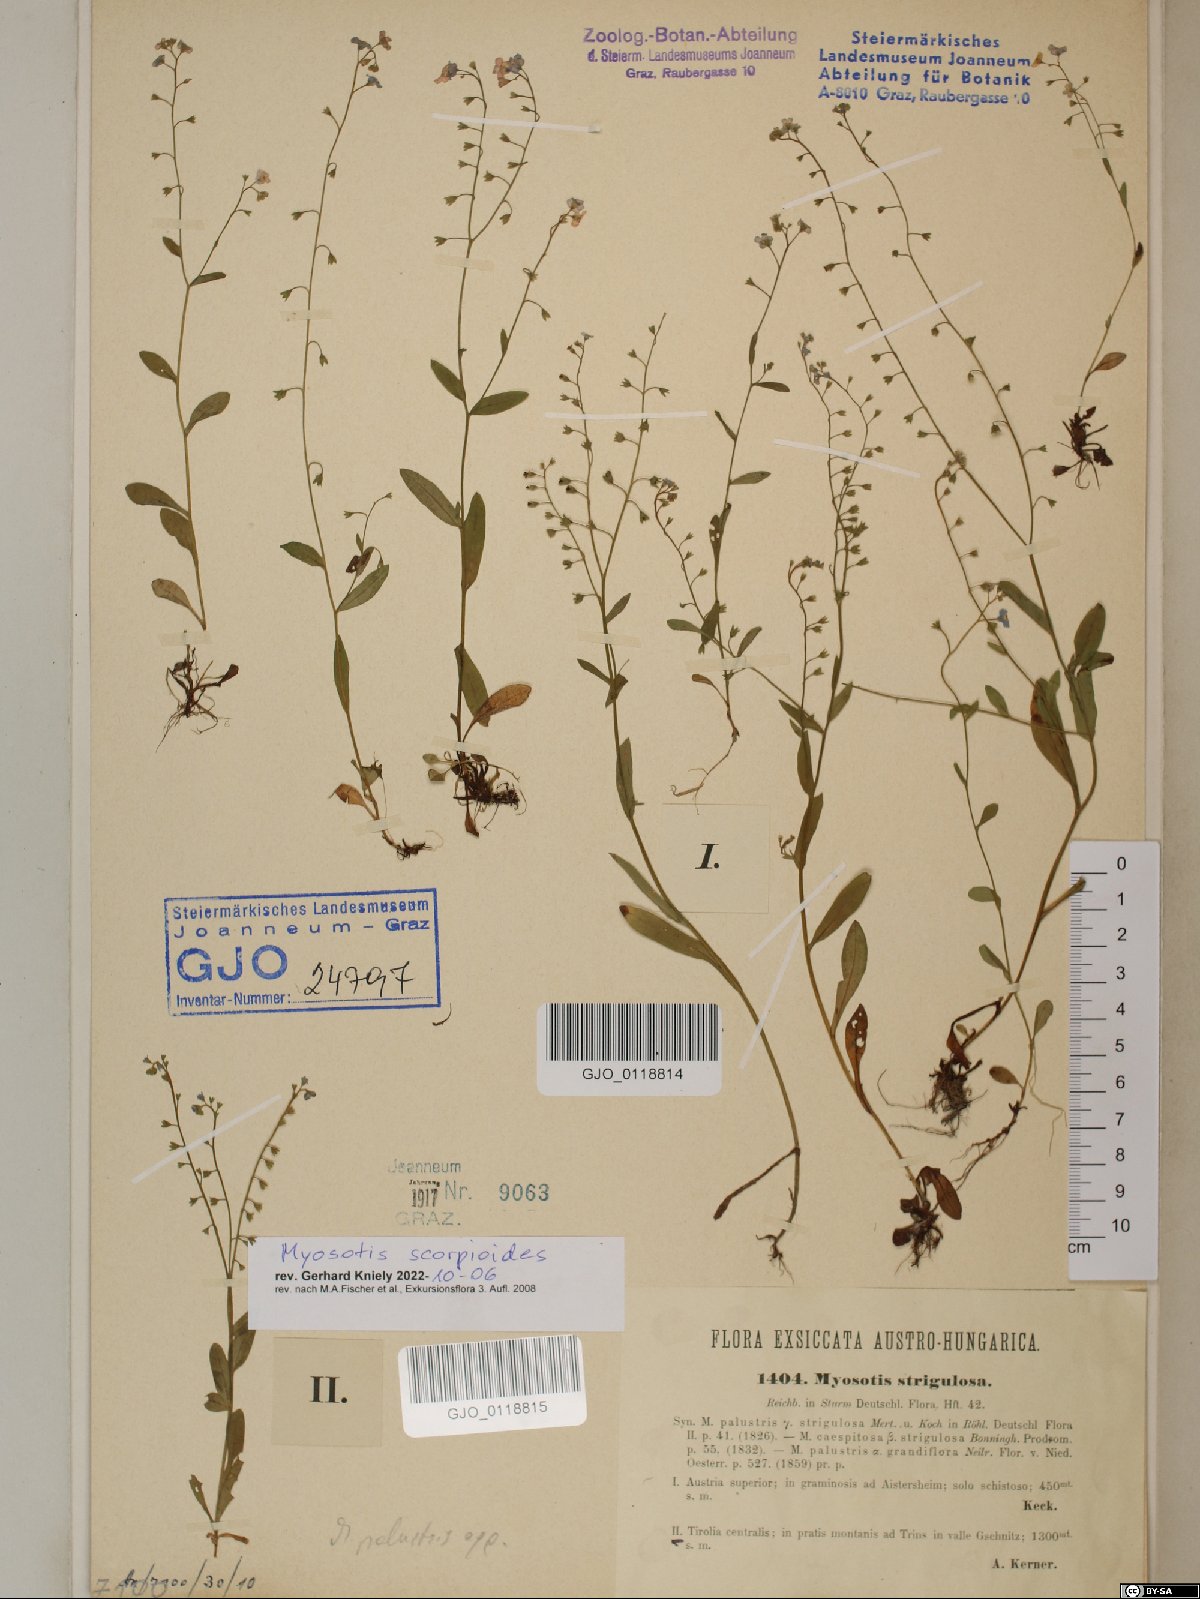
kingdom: Plantae
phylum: Tracheophyta
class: Magnoliopsida
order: Boraginales
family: Boraginaceae
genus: Myosotis
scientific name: Myosotis scorpioides
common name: Water forget-me-not
